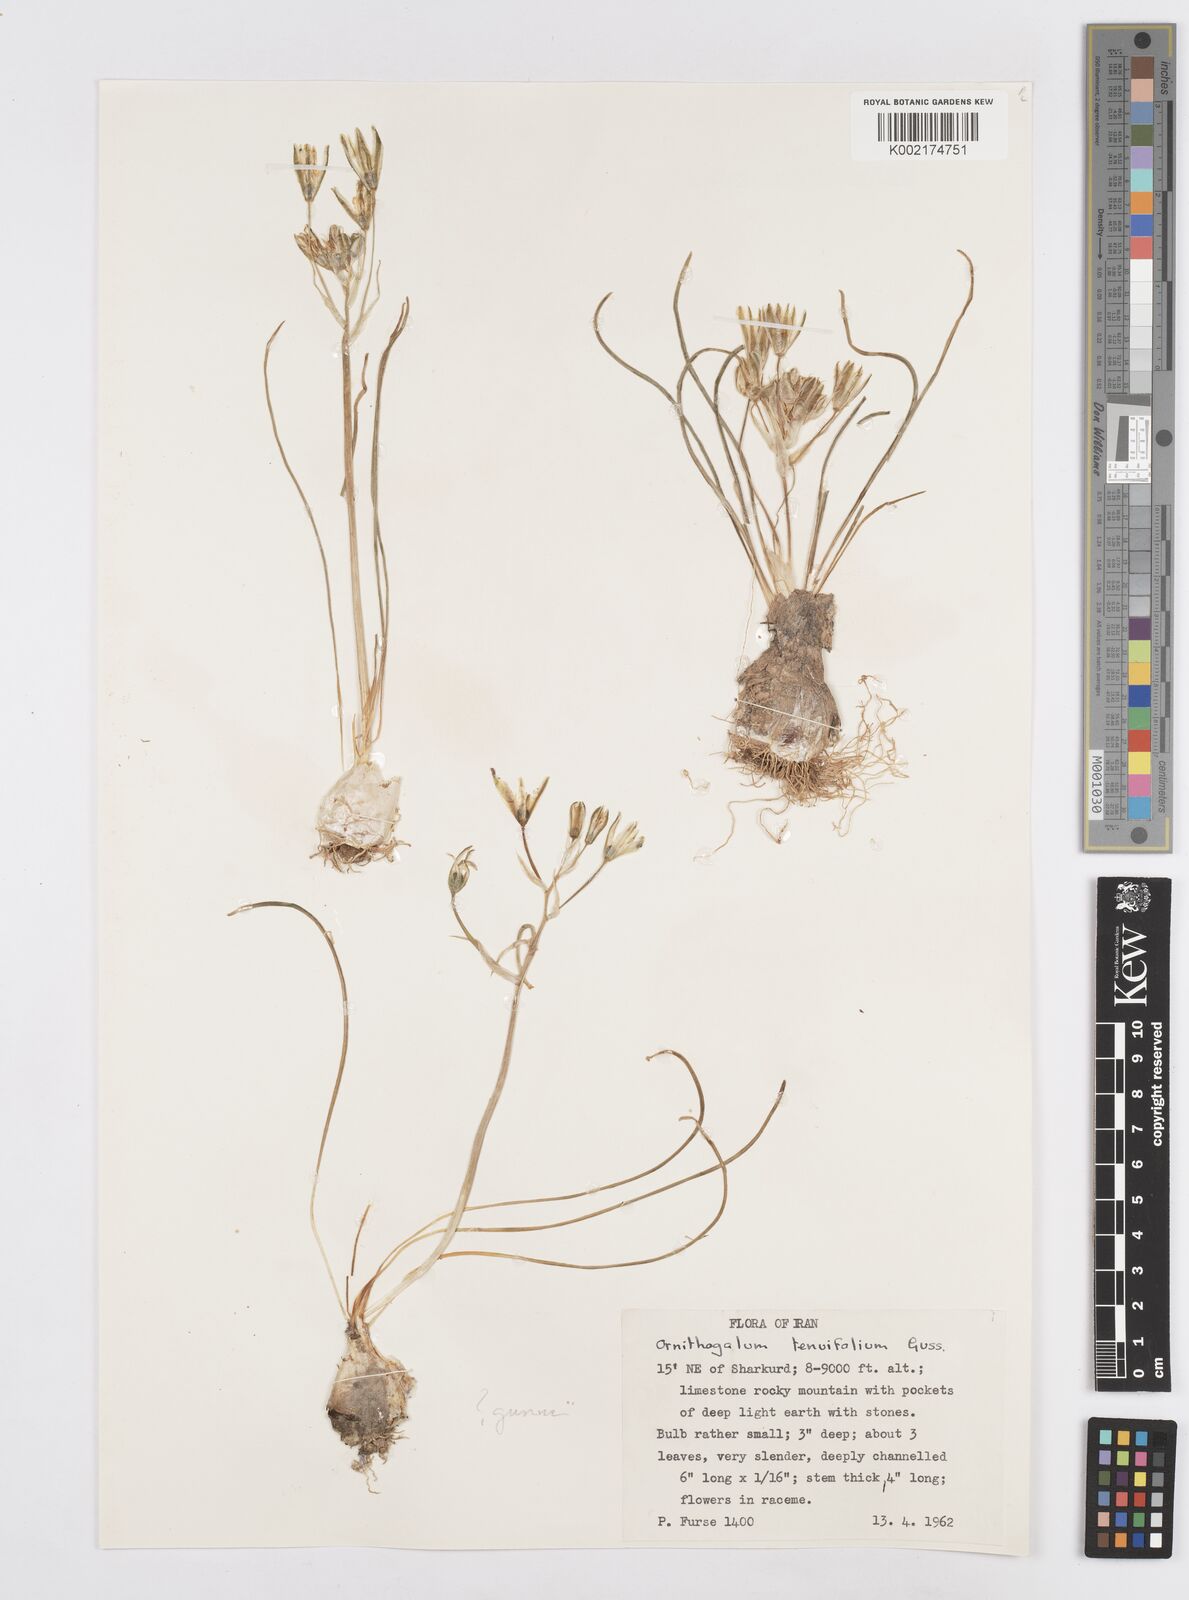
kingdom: Plantae
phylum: Tracheophyta
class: Liliopsida
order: Asparagales
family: Asparagaceae
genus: Ornithogalum
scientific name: Ornithogalum gussonei
